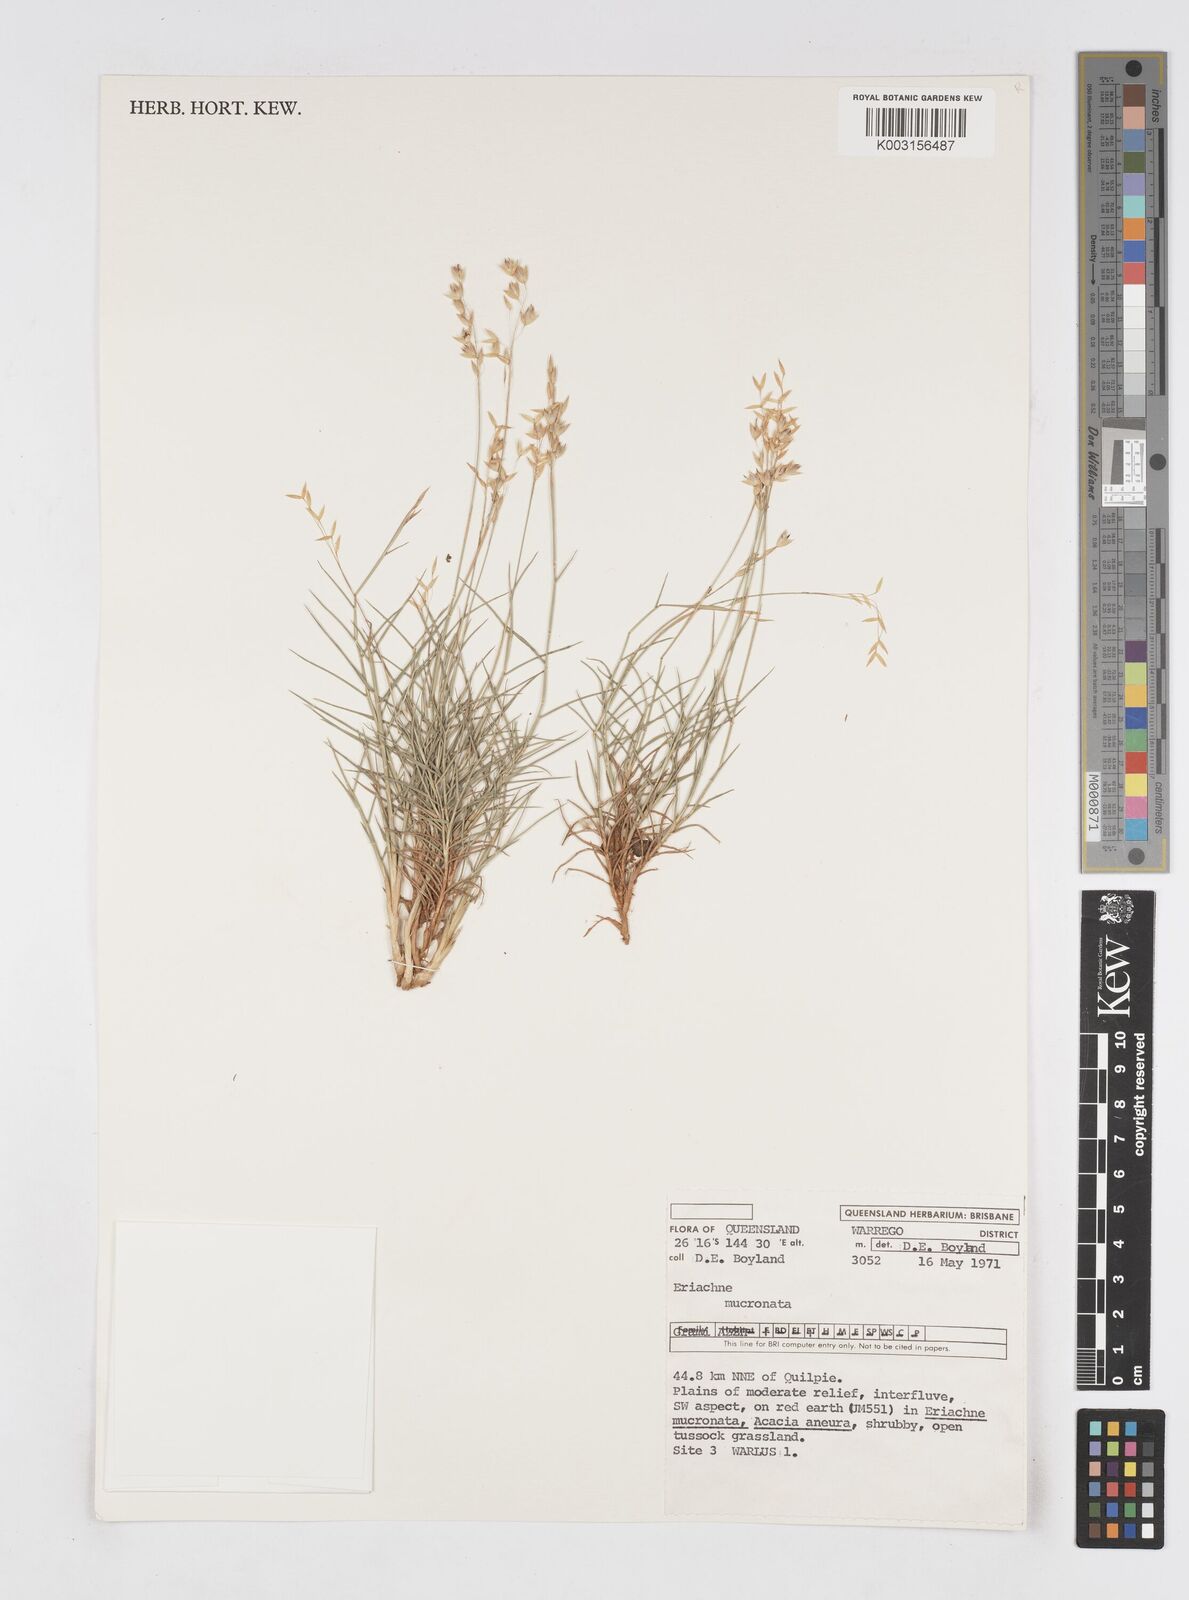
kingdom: Plantae
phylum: Tracheophyta
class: Liliopsida
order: Poales
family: Poaceae
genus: Eriachne
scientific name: Eriachne mucronata
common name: Mountain wanderrie grass
